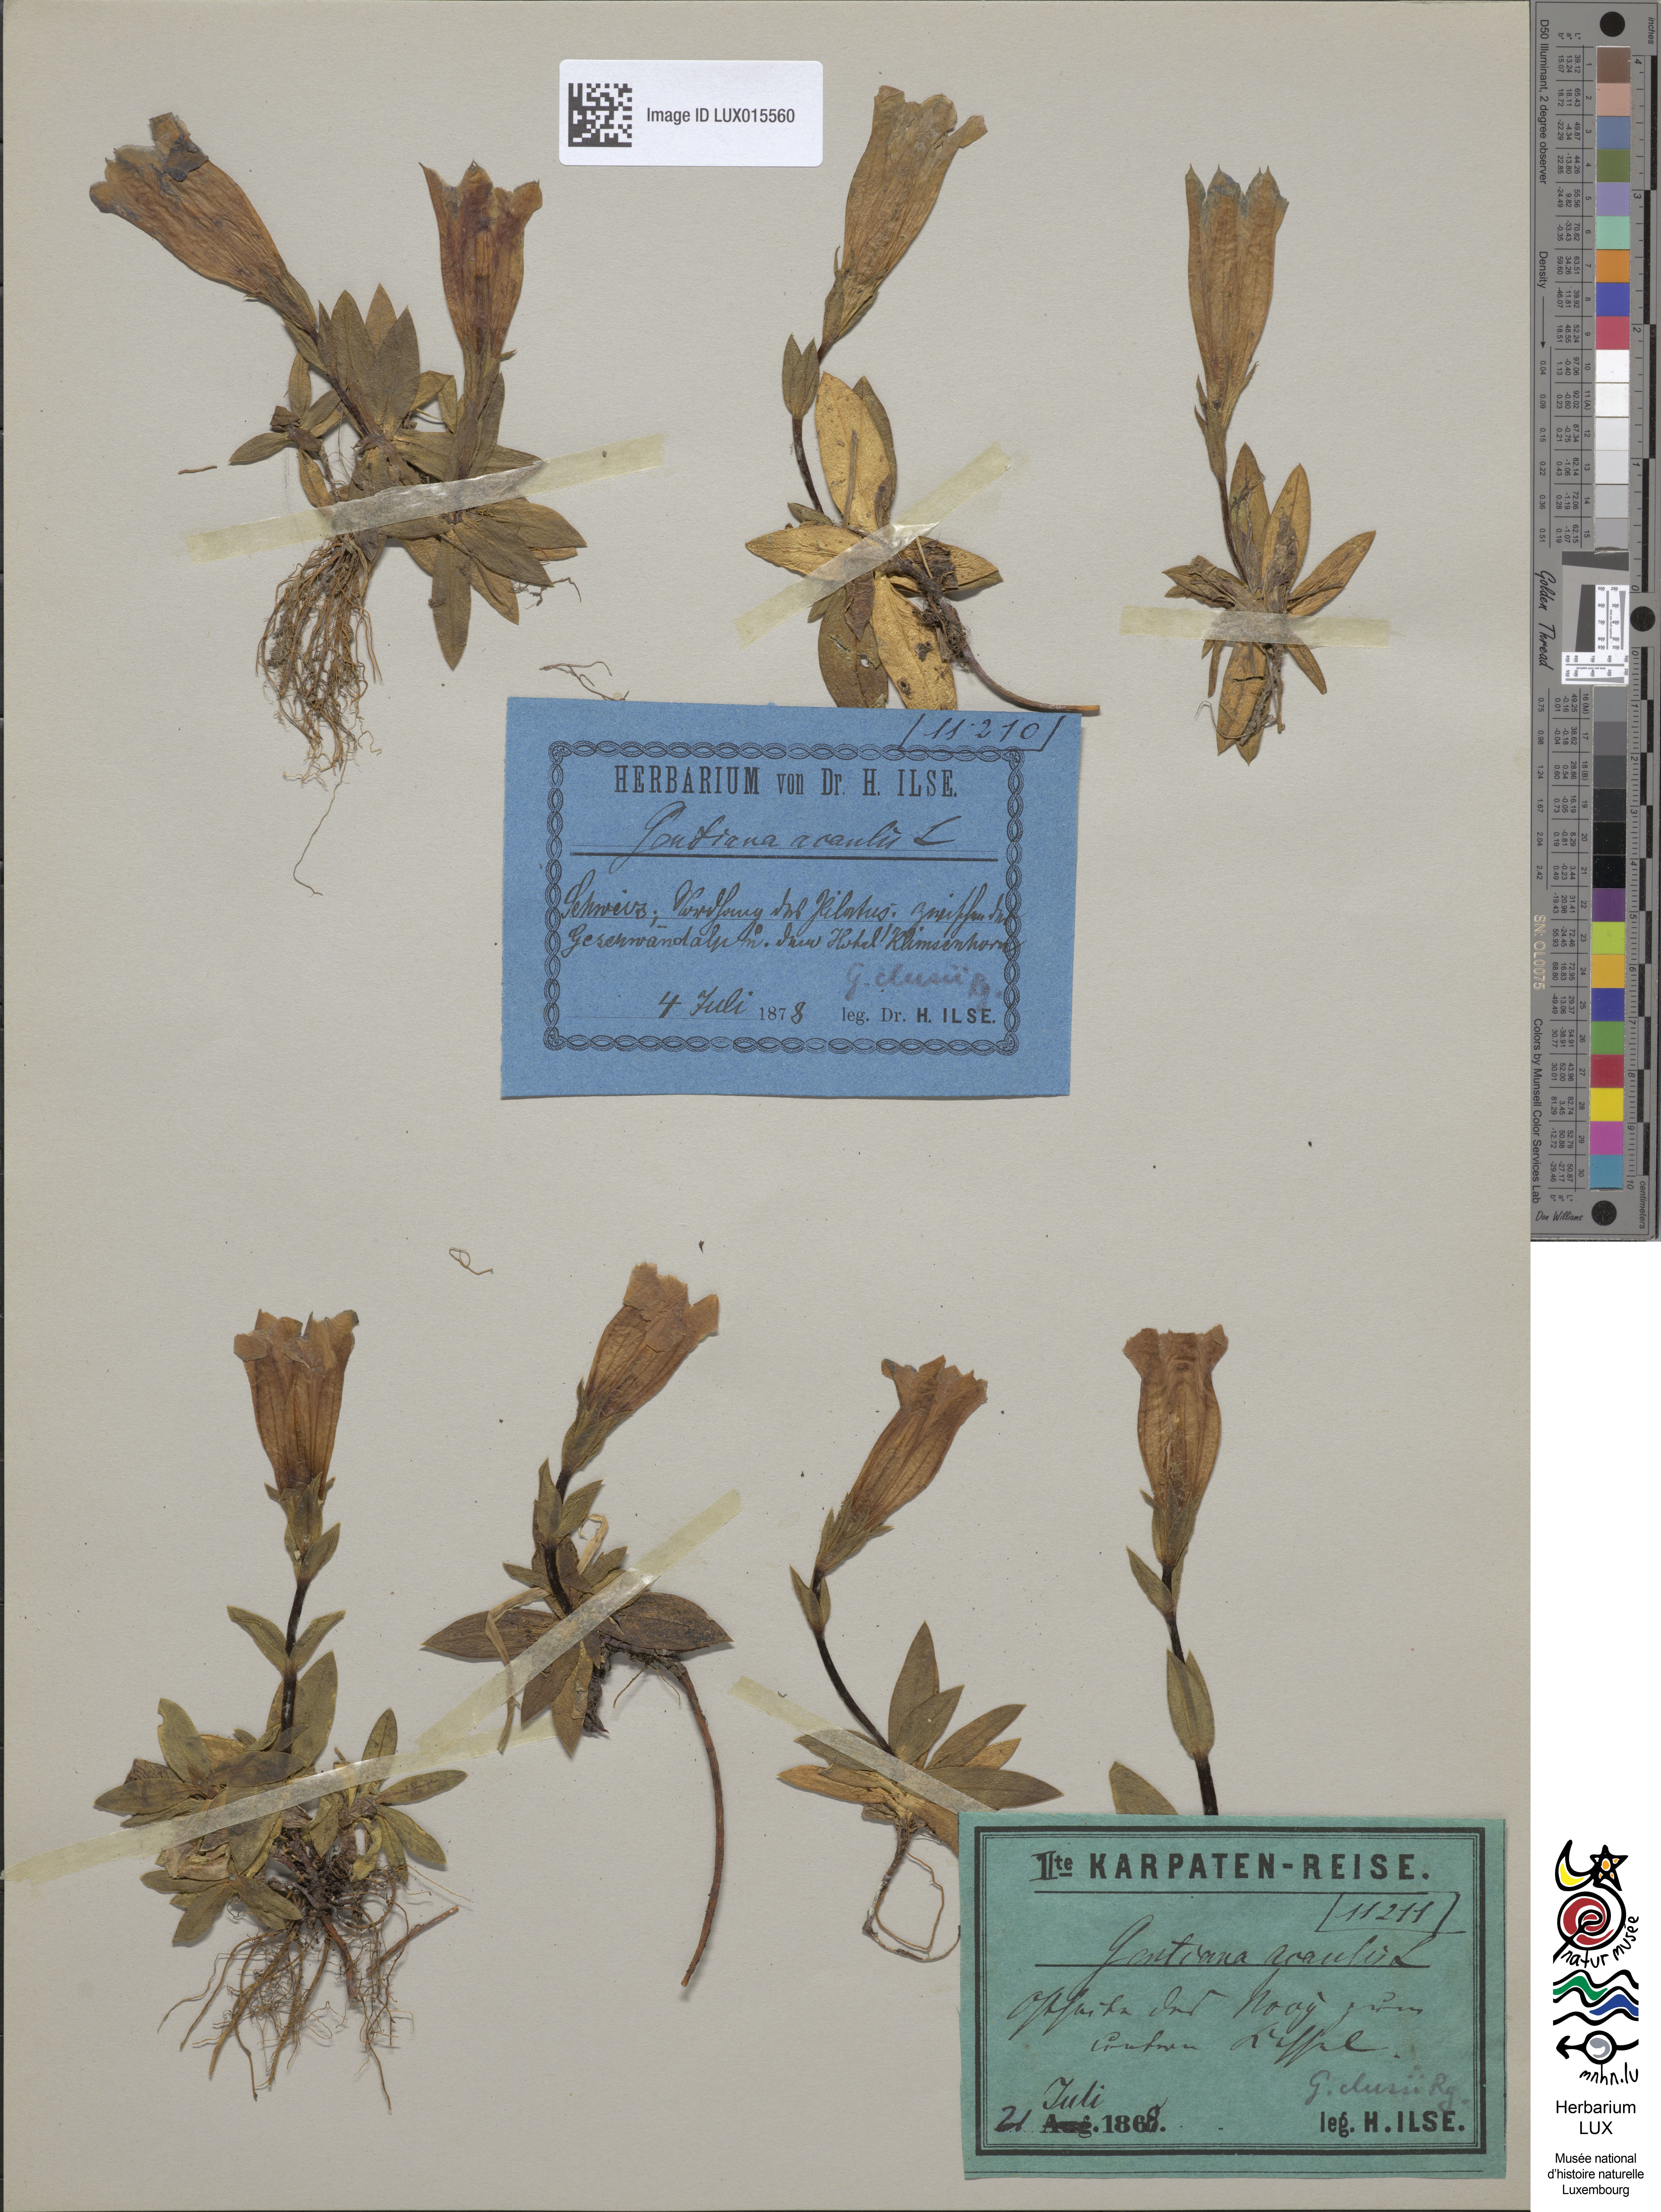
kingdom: Plantae
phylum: Tracheophyta
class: Magnoliopsida
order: Gentianales
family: Gentianaceae
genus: Gentiana
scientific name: Gentiana clusii
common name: Trumpet gentian
